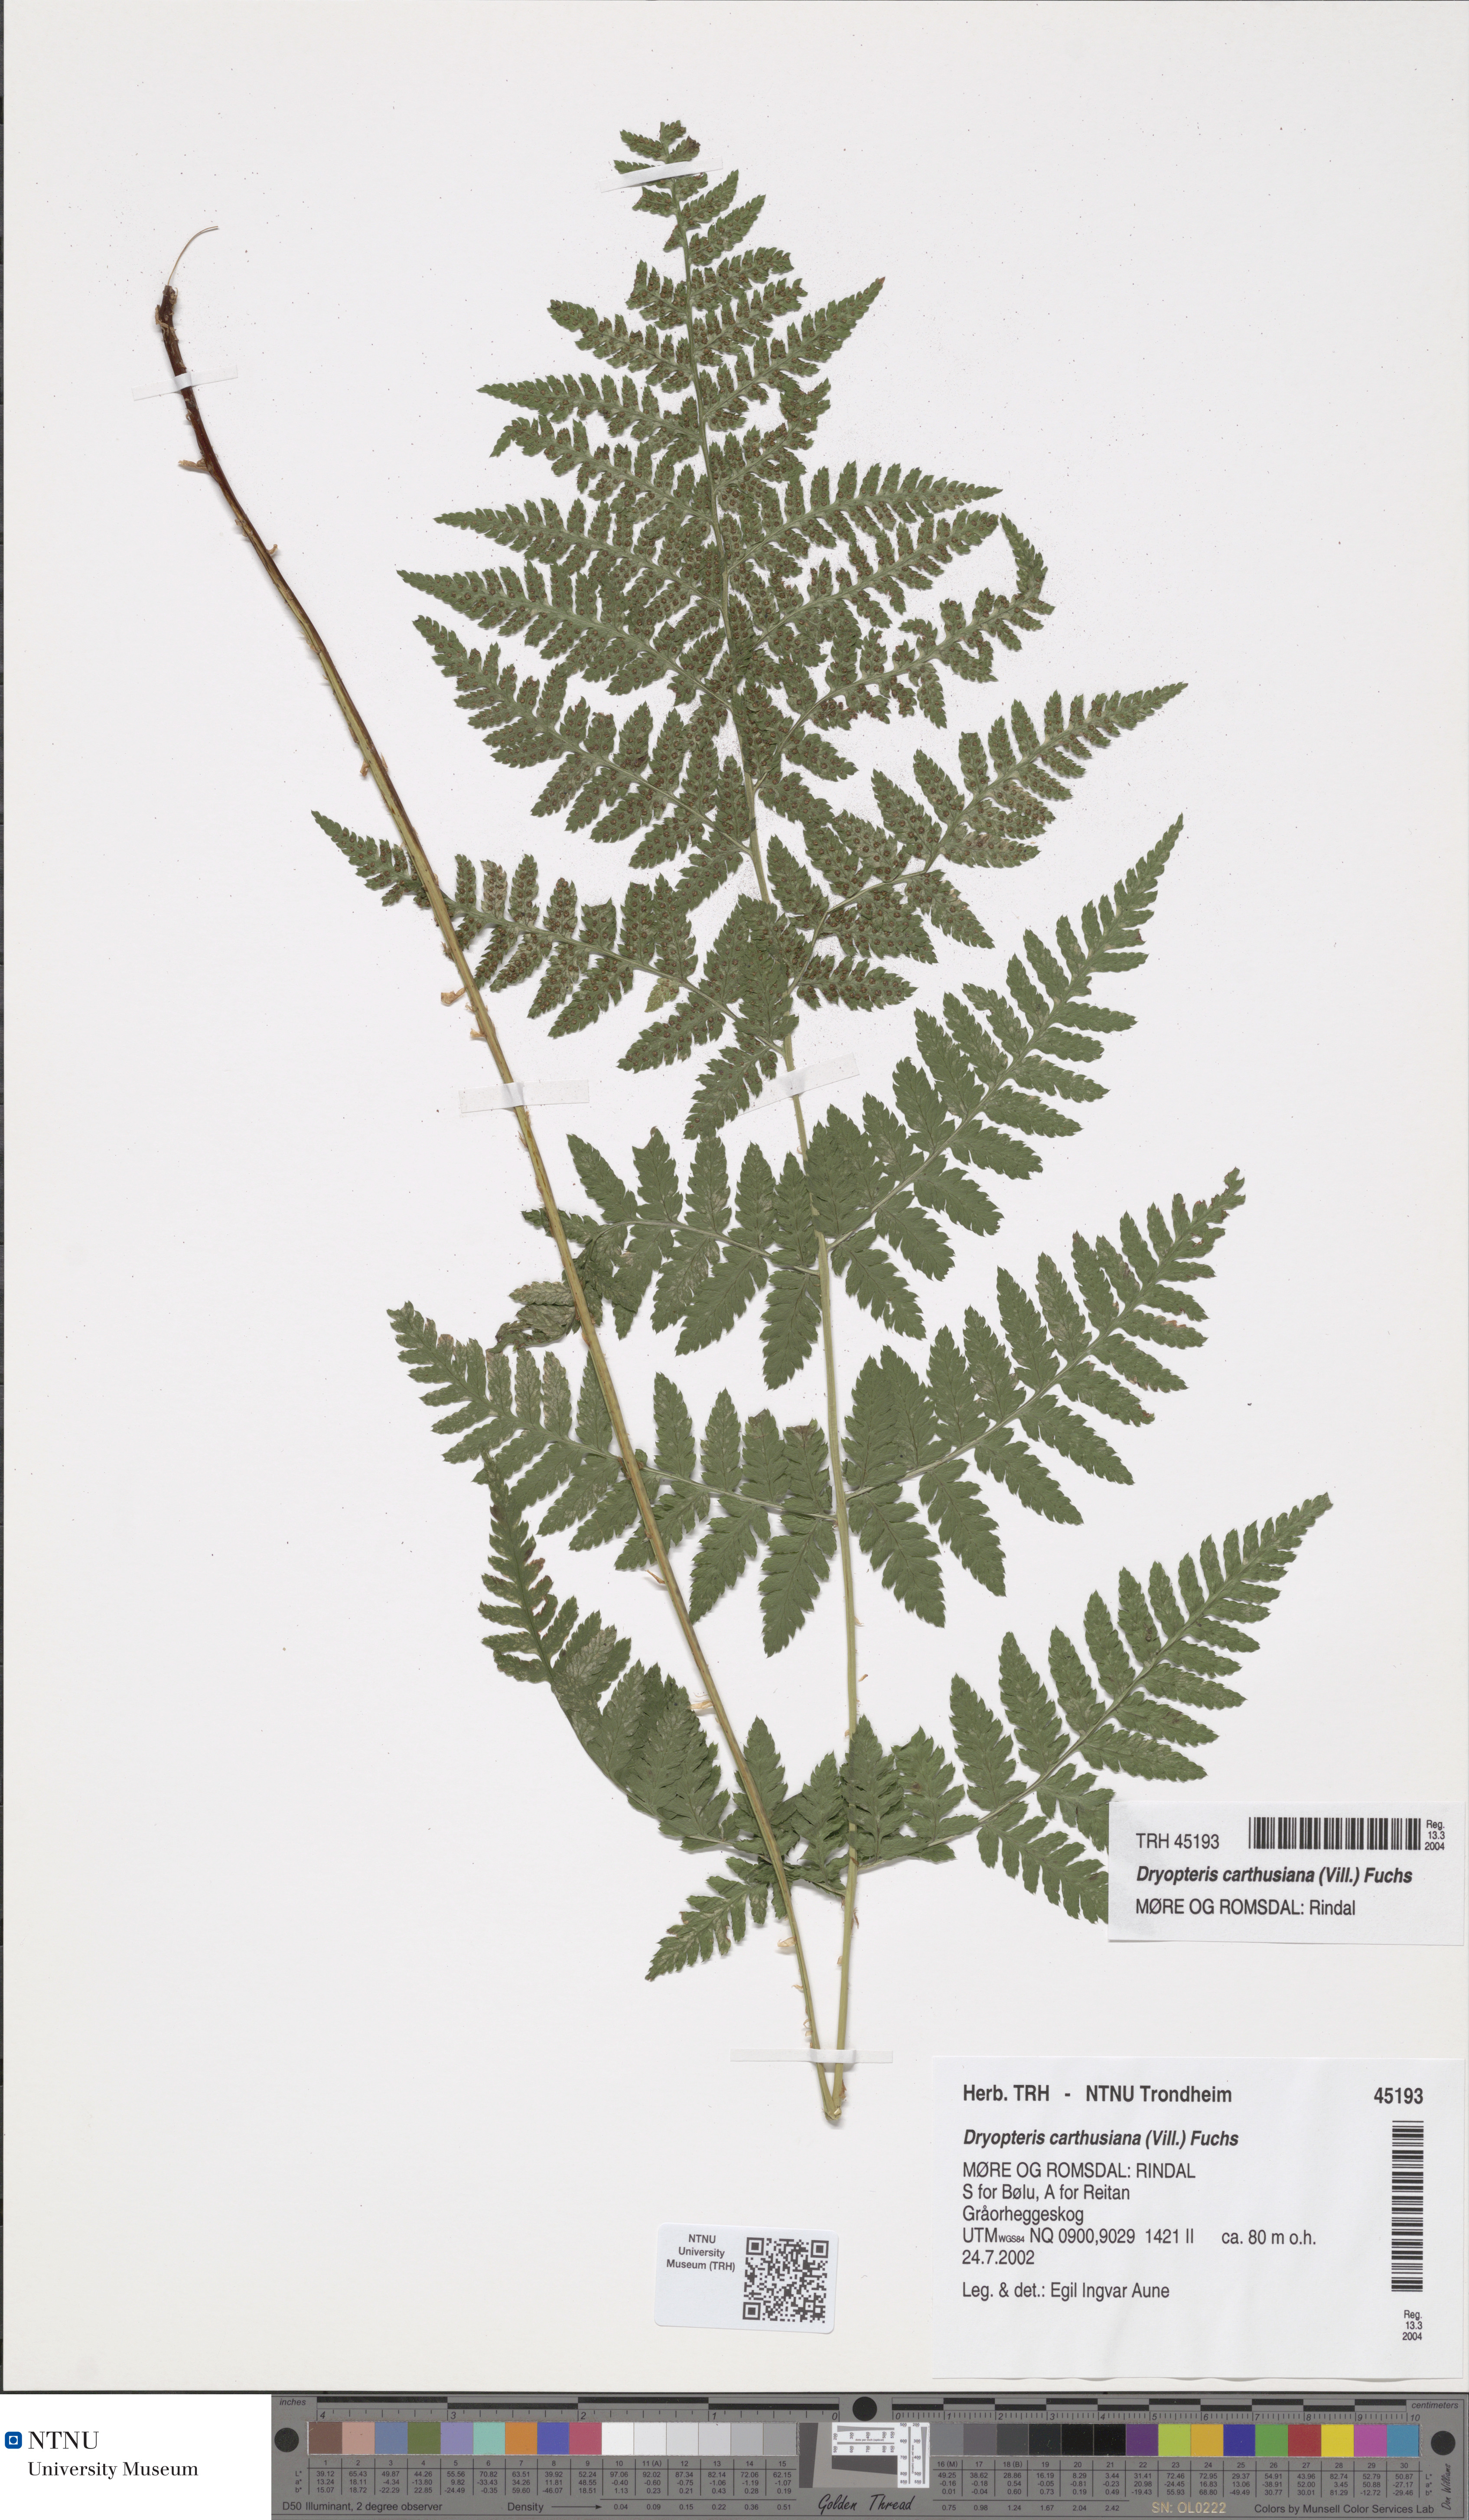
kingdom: Plantae
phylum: Tracheophyta
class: Polypodiopsida
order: Polypodiales
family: Dryopteridaceae
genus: Dryopteris
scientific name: Dryopteris carthusiana
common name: Narrow buckler-fern
